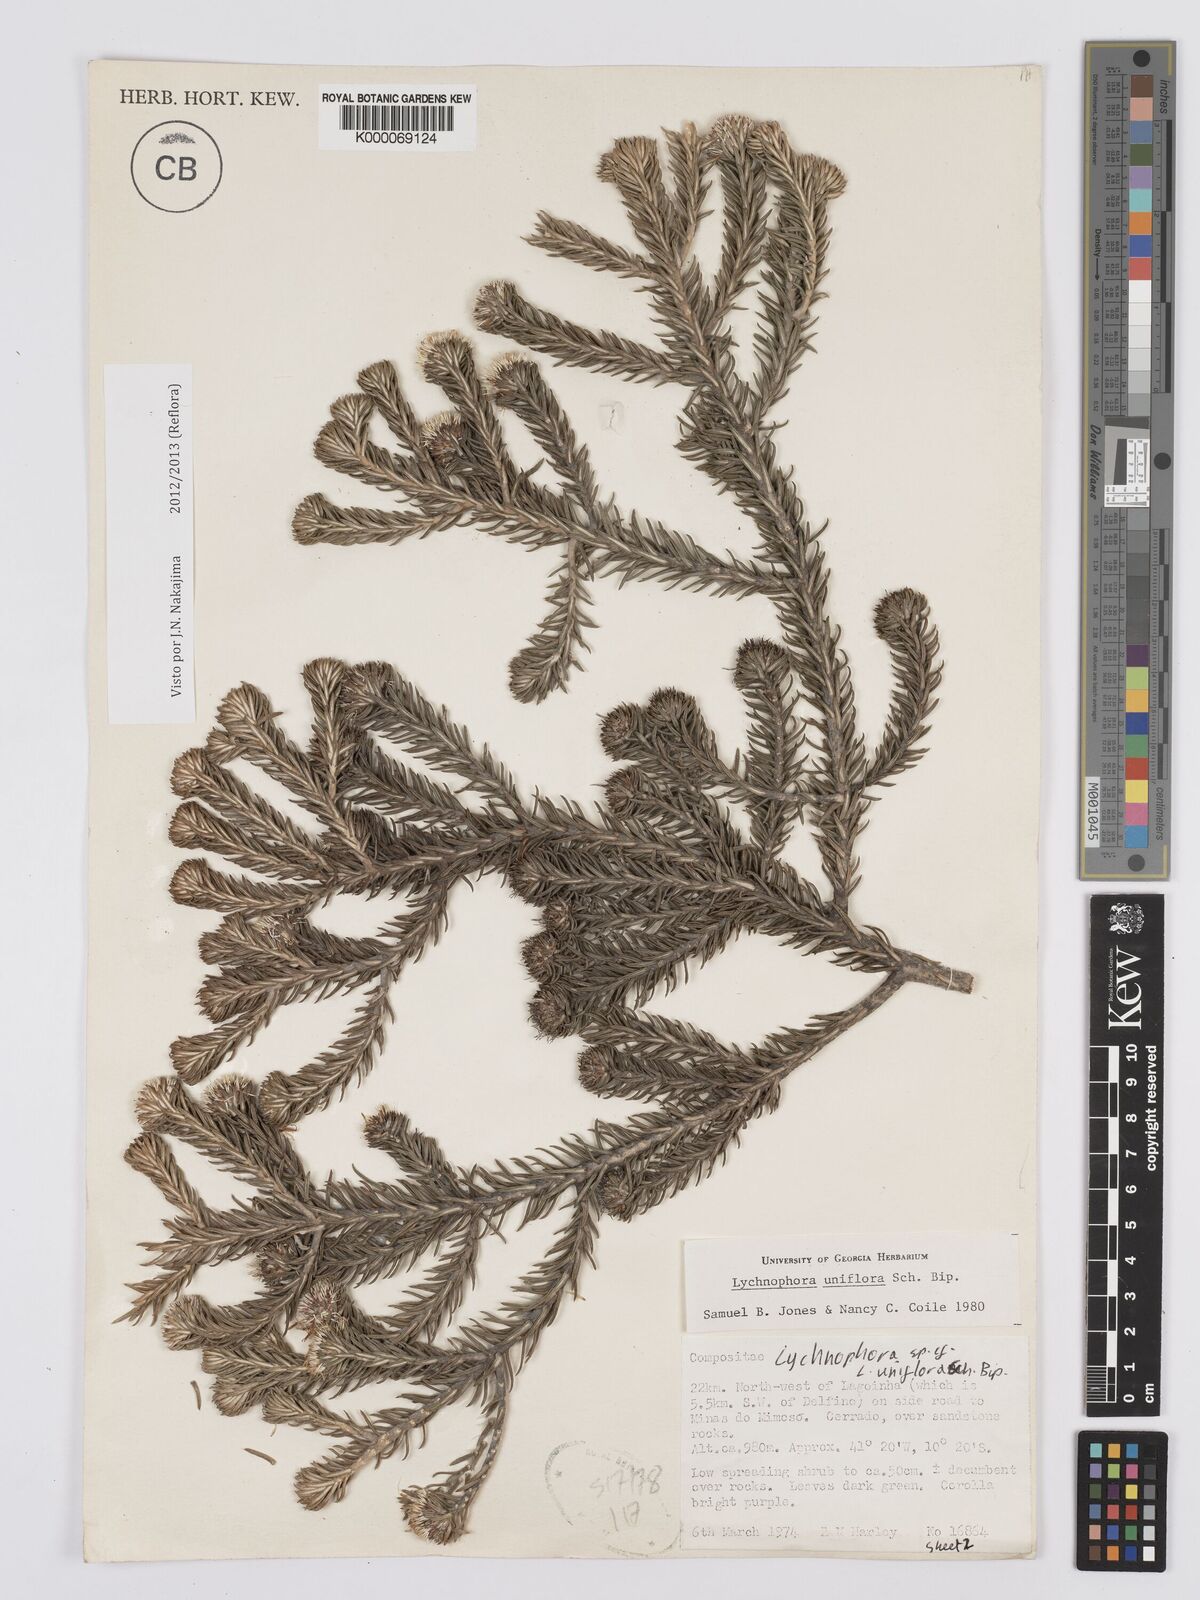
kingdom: Plantae
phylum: Tracheophyta
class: Magnoliopsida
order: Asterales
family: Asteraceae
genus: Lychnophora
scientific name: Lychnophora uniflora
